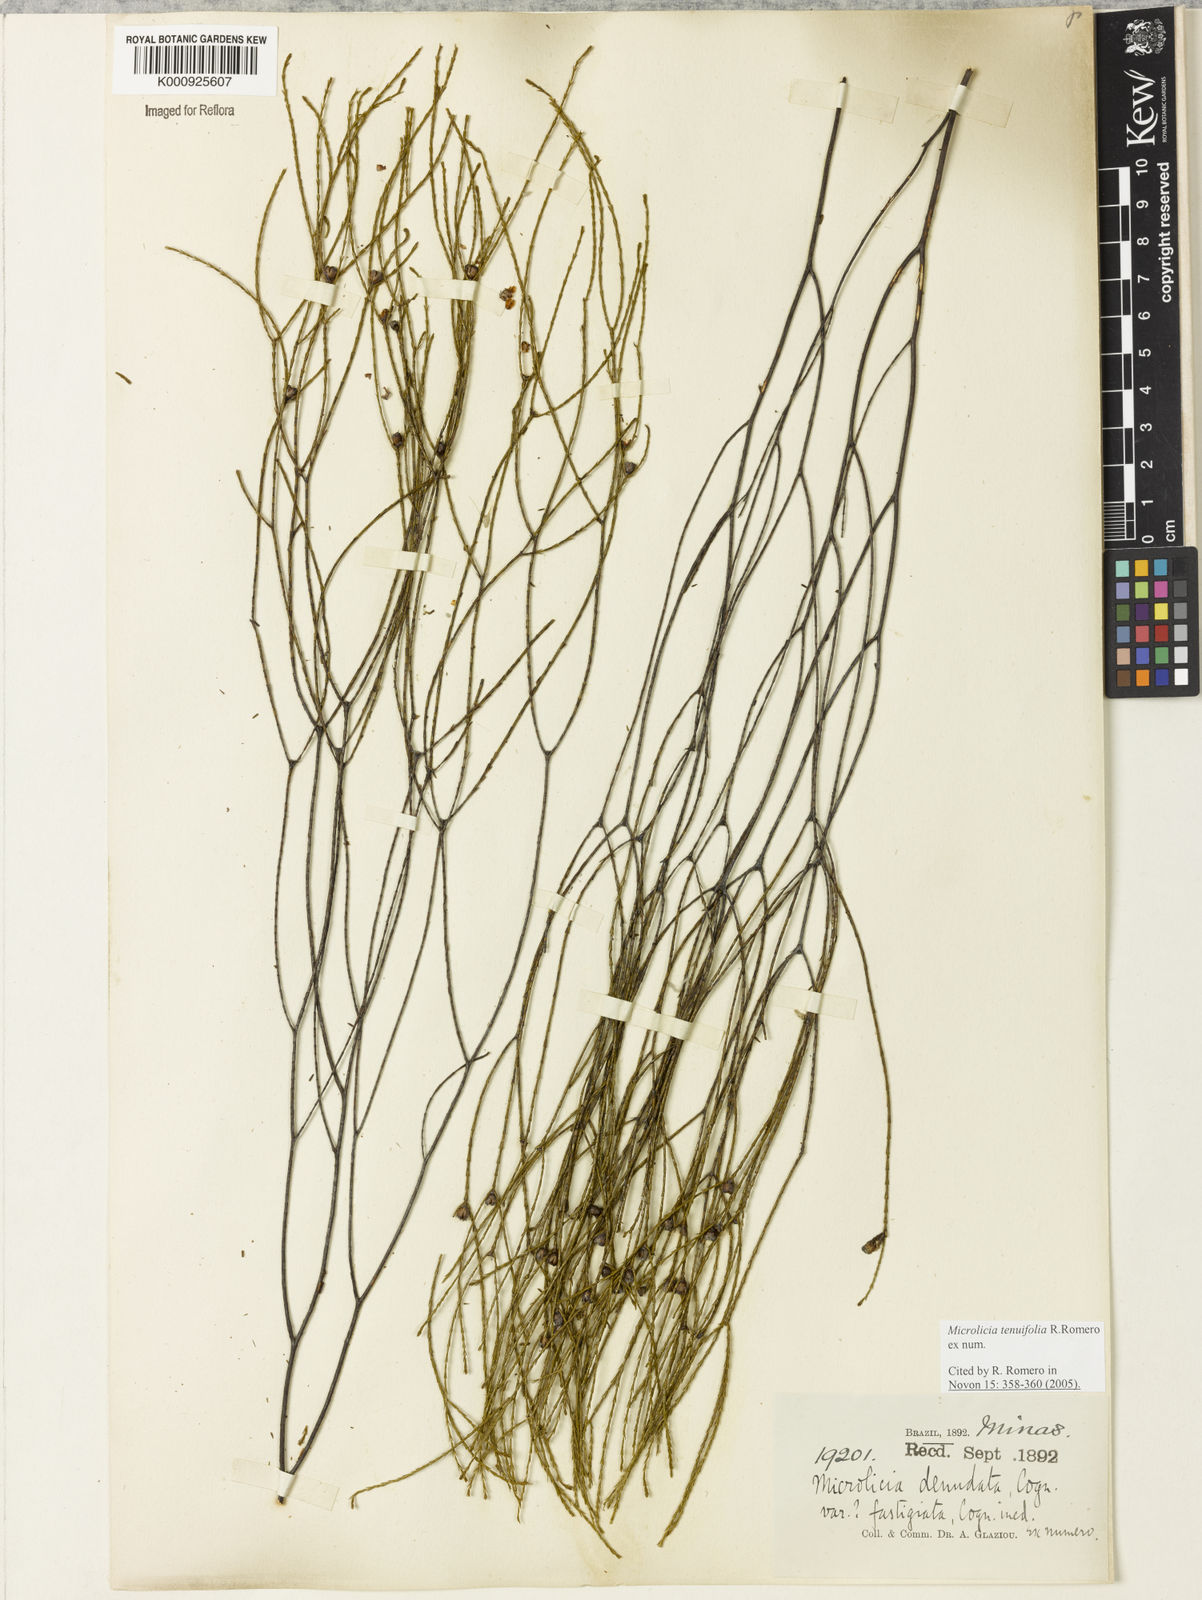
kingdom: Plantae
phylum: Tracheophyta
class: Magnoliopsida
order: Myrtales
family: Melastomataceae
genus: Microlicia
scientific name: Microlicia tenuifolia
